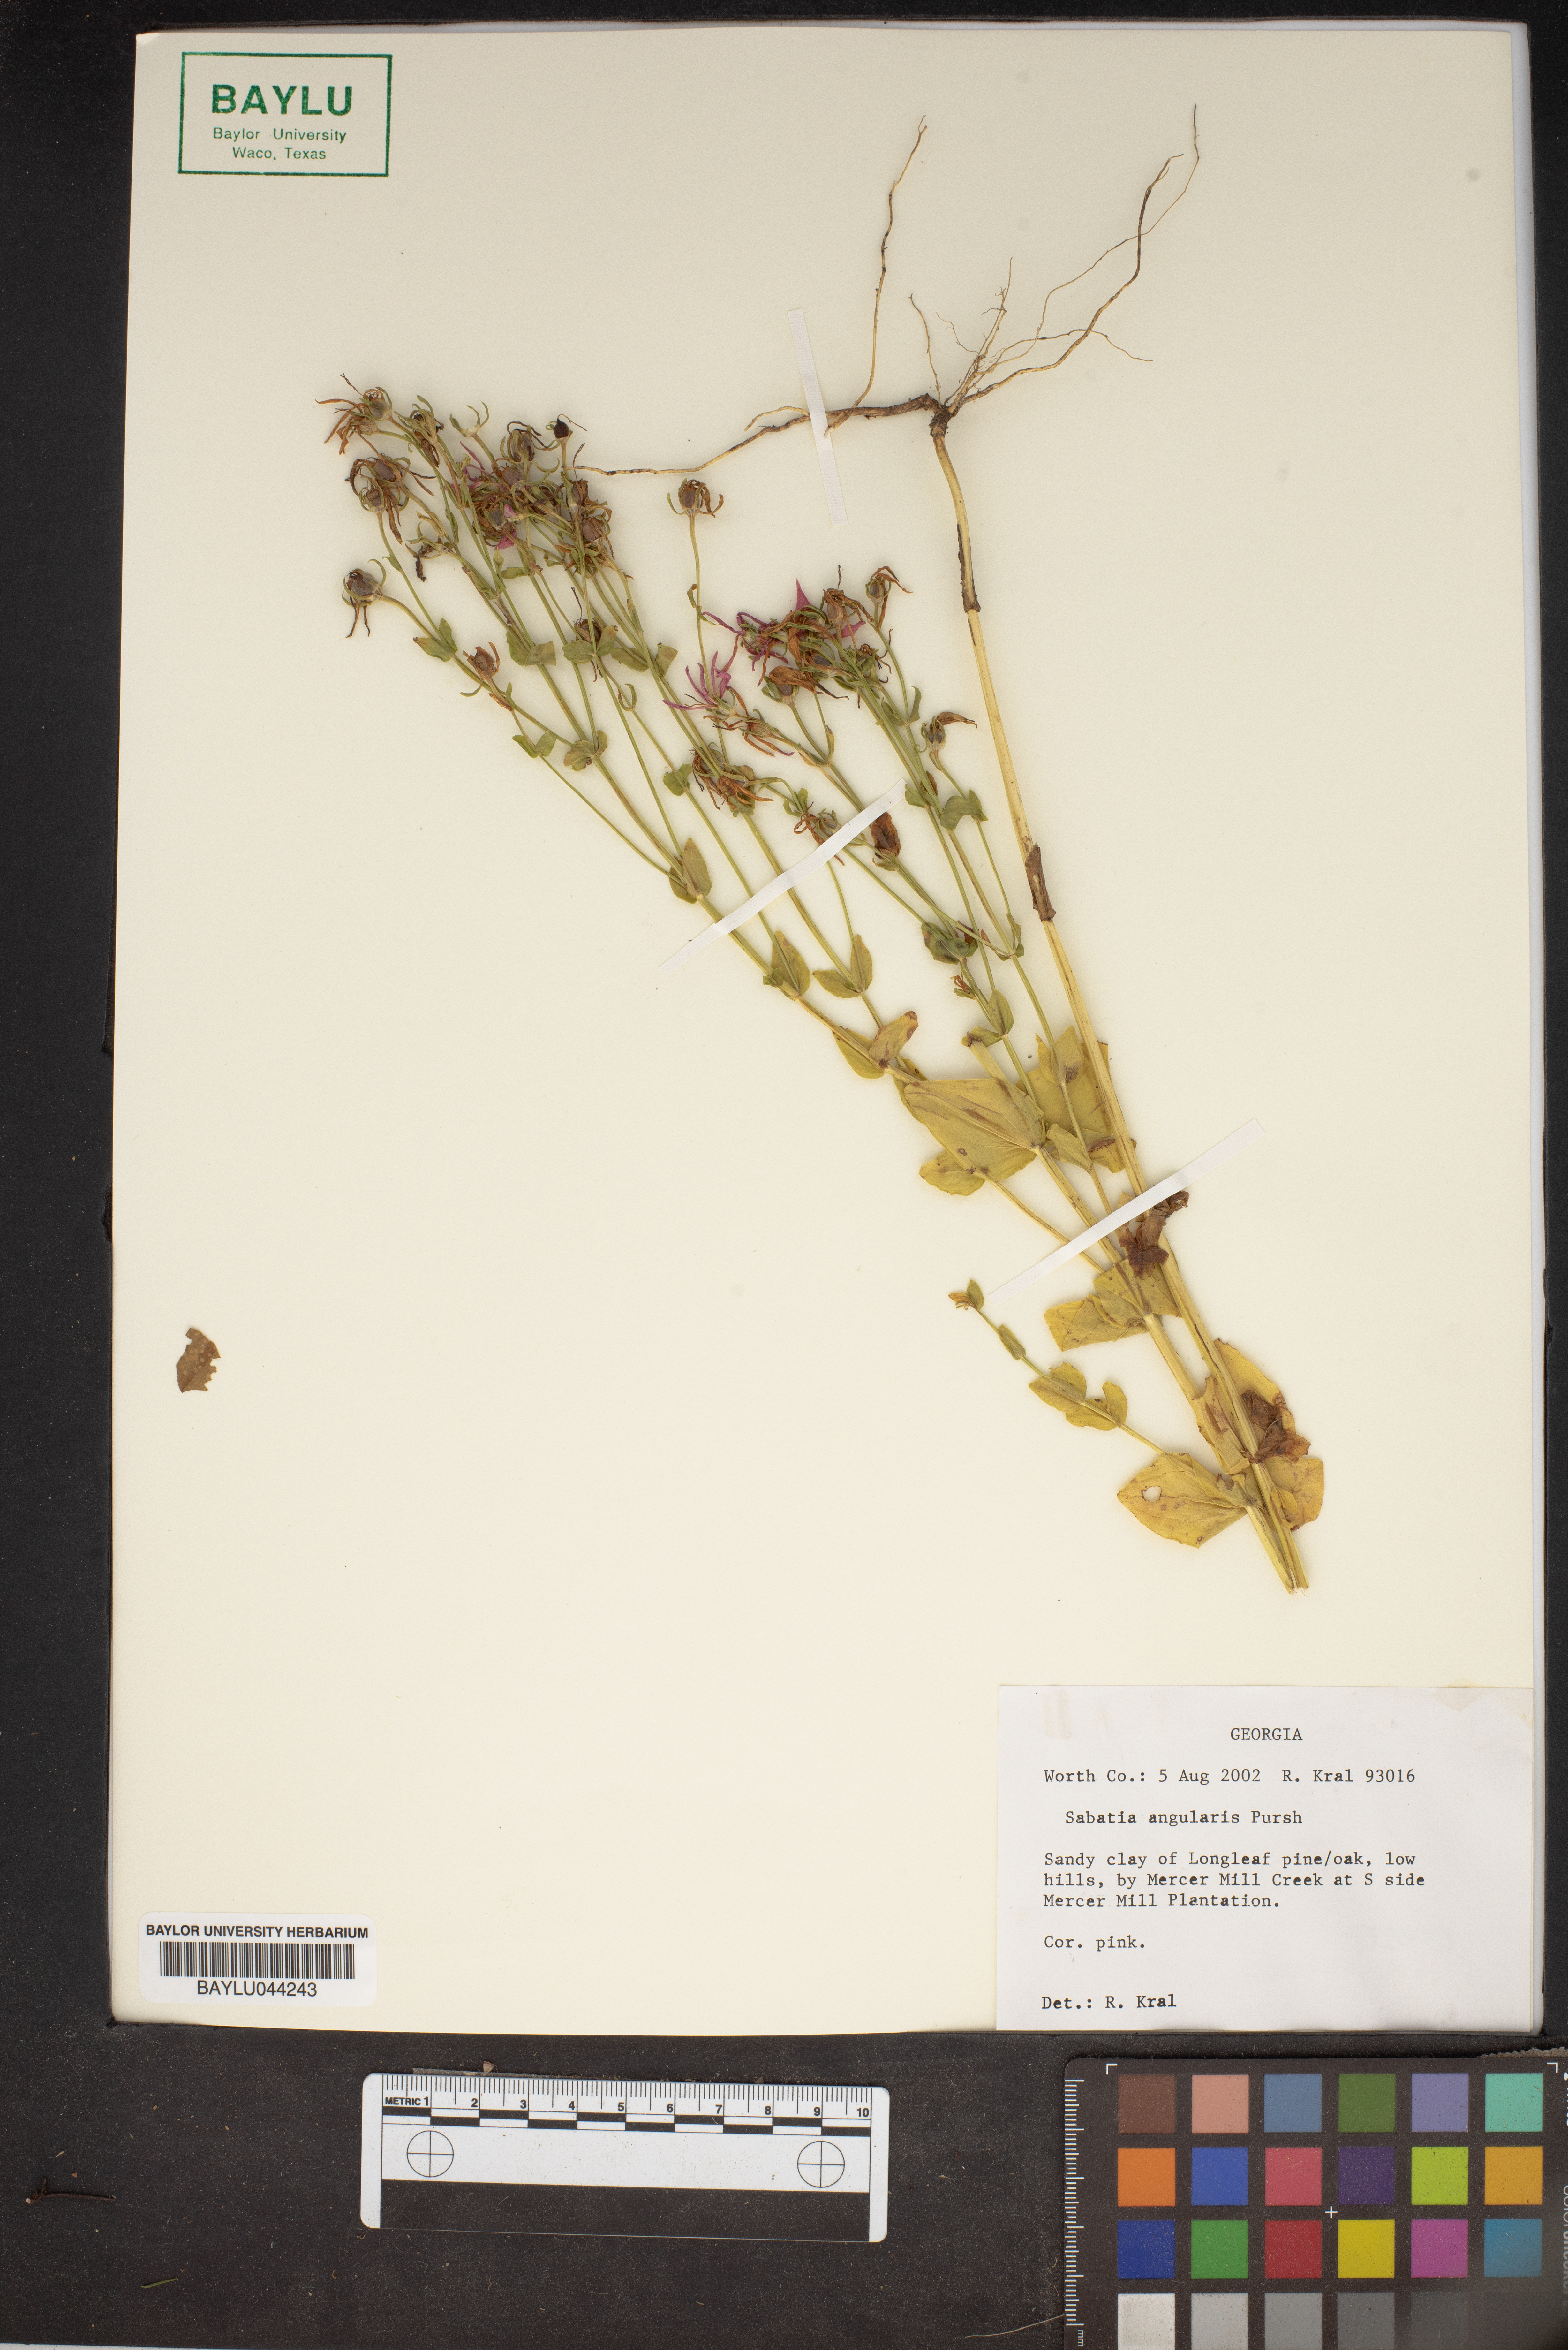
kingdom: Plantae
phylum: Tracheophyta
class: Magnoliopsida
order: Gentianales
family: Gentianaceae
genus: Sabatia
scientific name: Sabatia angularis
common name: Rose-pink
